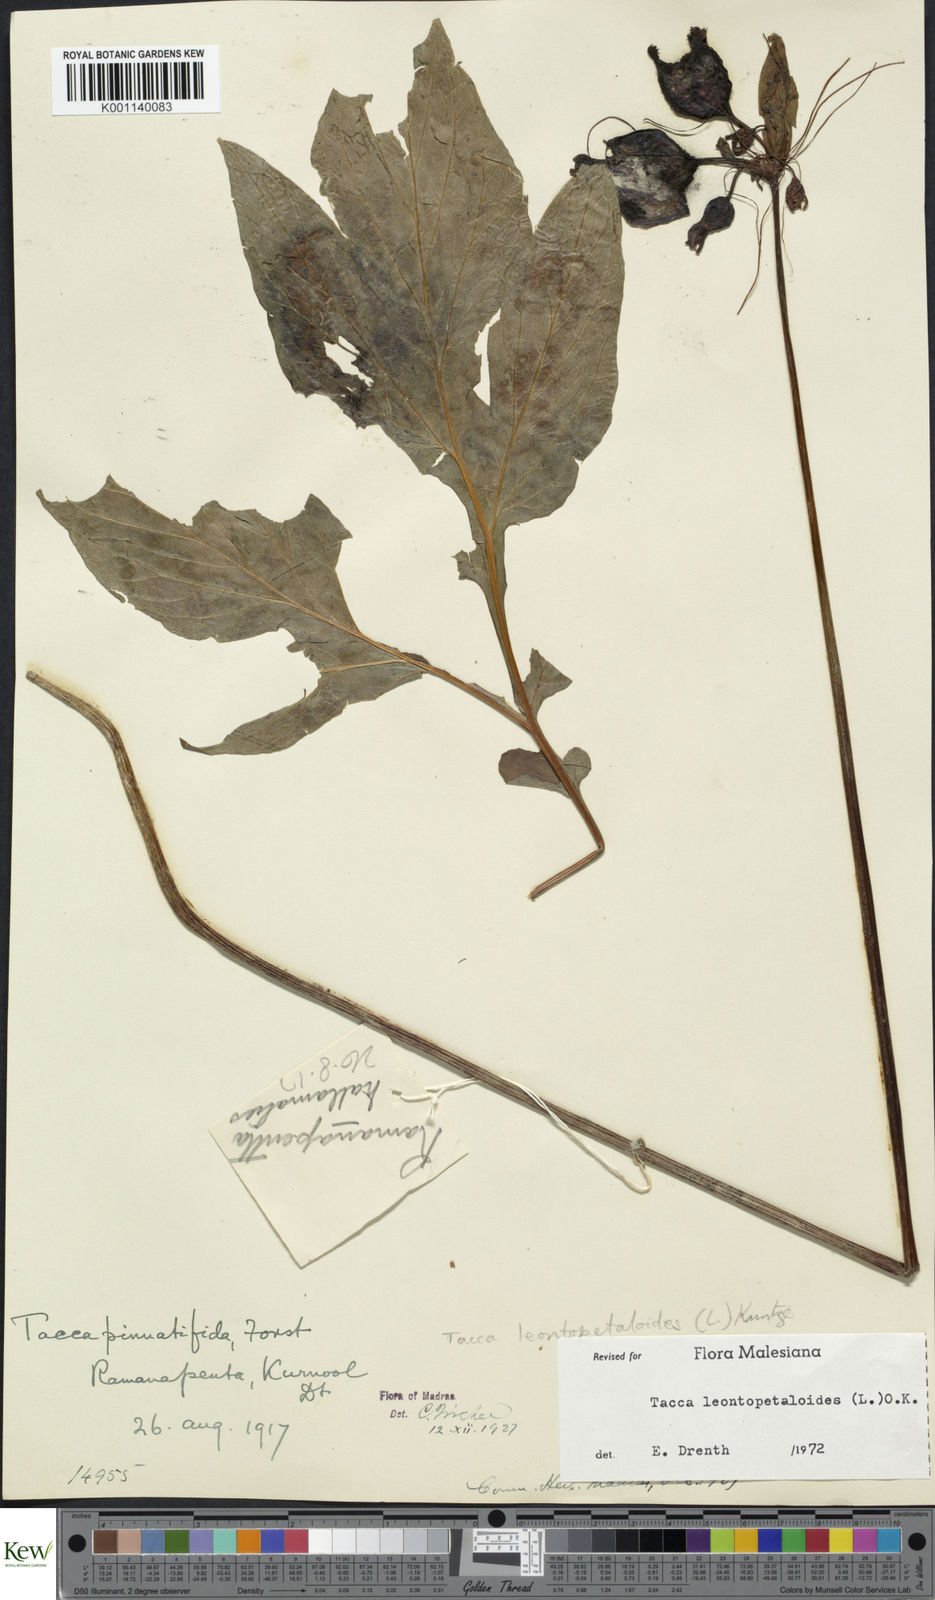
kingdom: Plantae
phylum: Tracheophyta
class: Liliopsida
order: Dioscoreales
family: Dioscoreaceae
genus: Tacca
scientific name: Tacca leontopetaloides
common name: Arrowroot
